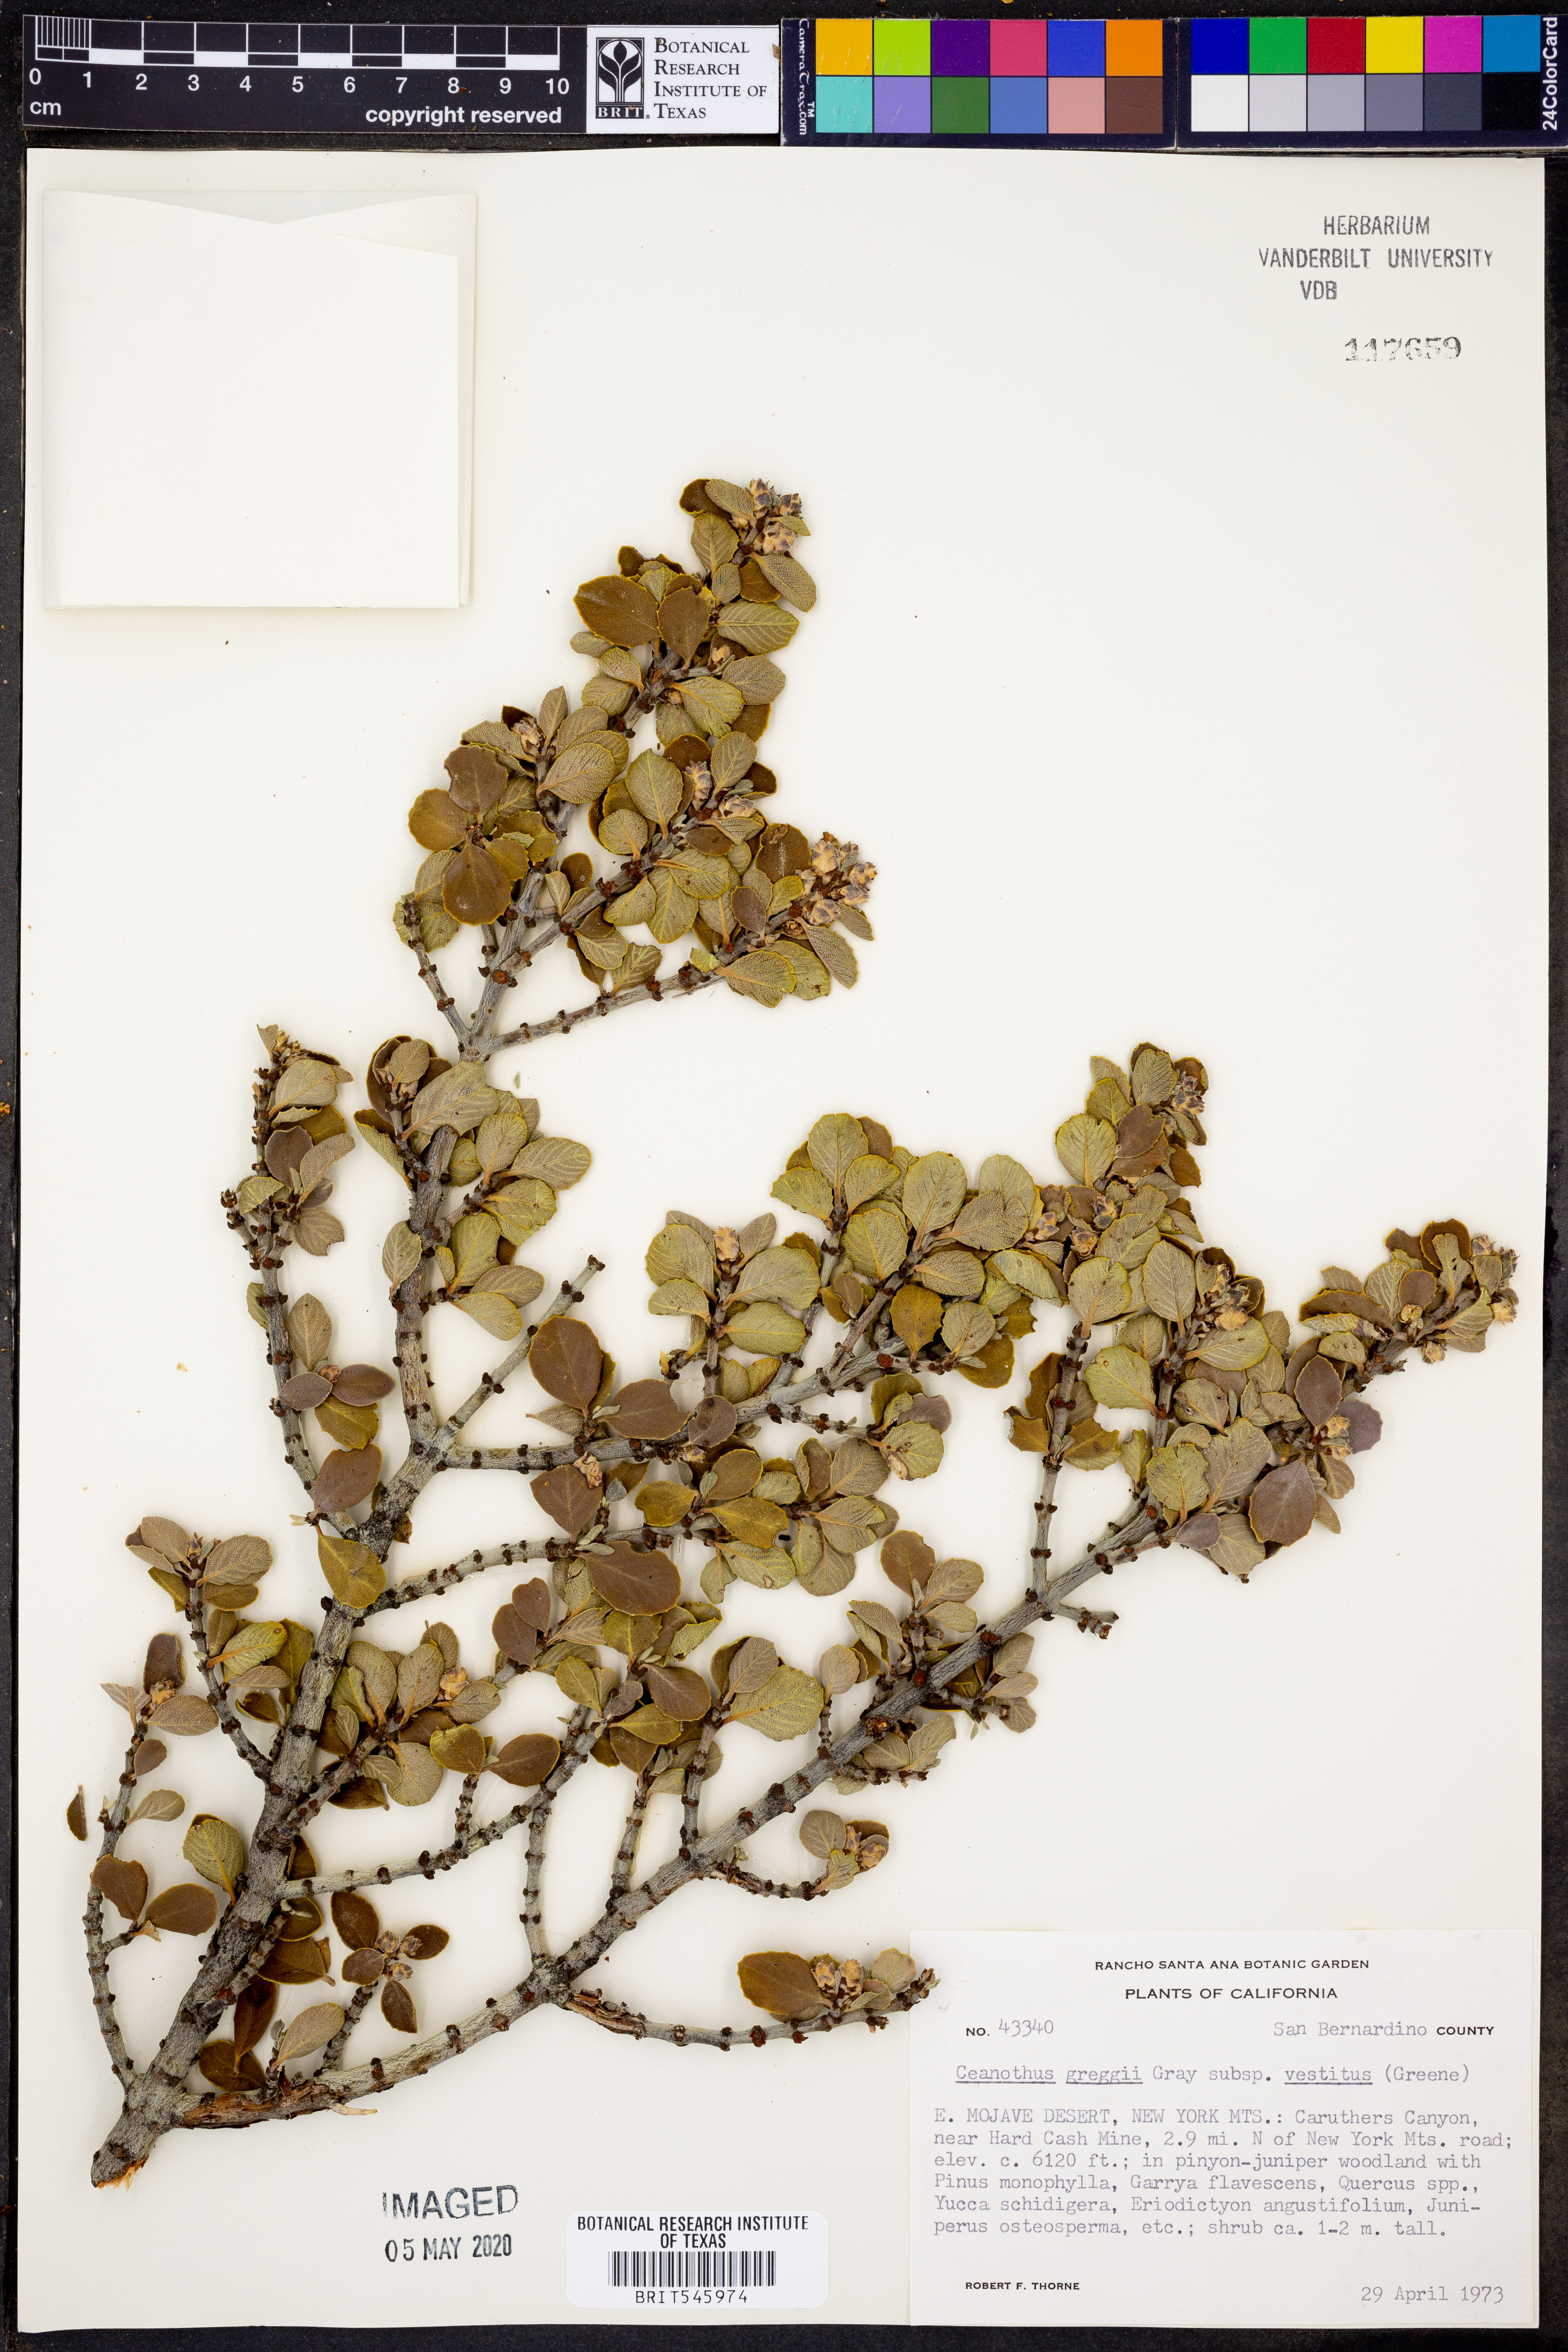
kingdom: Plantae
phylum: Tracheophyta
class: Magnoliopsida
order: Rosales
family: Rhamnaceae
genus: Ceanothus
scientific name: Ceanothus pauciflorus
